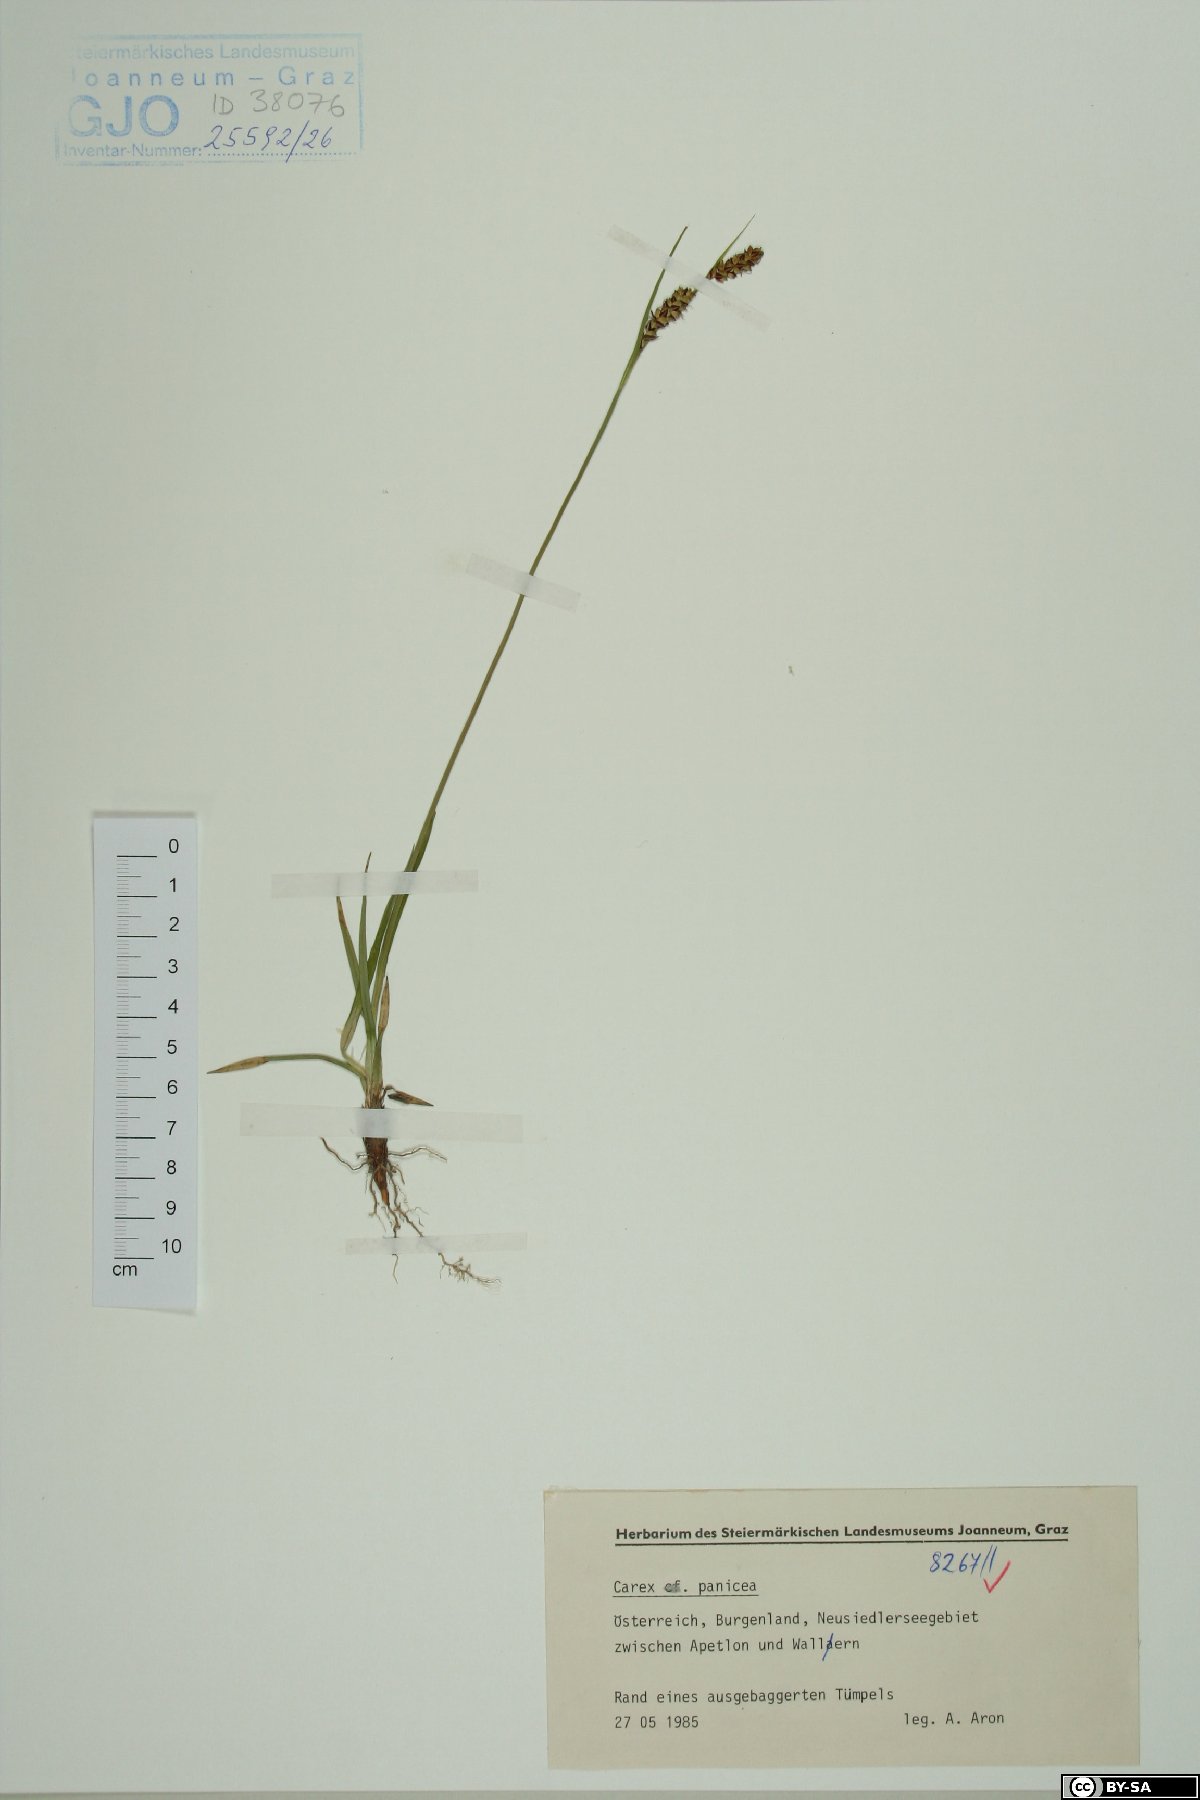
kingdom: Plantae
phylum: Tracheophyta
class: Liliopsida
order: Poales
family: Cyperaceae
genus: Carex
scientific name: Carex panicea
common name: Carnation sedge
